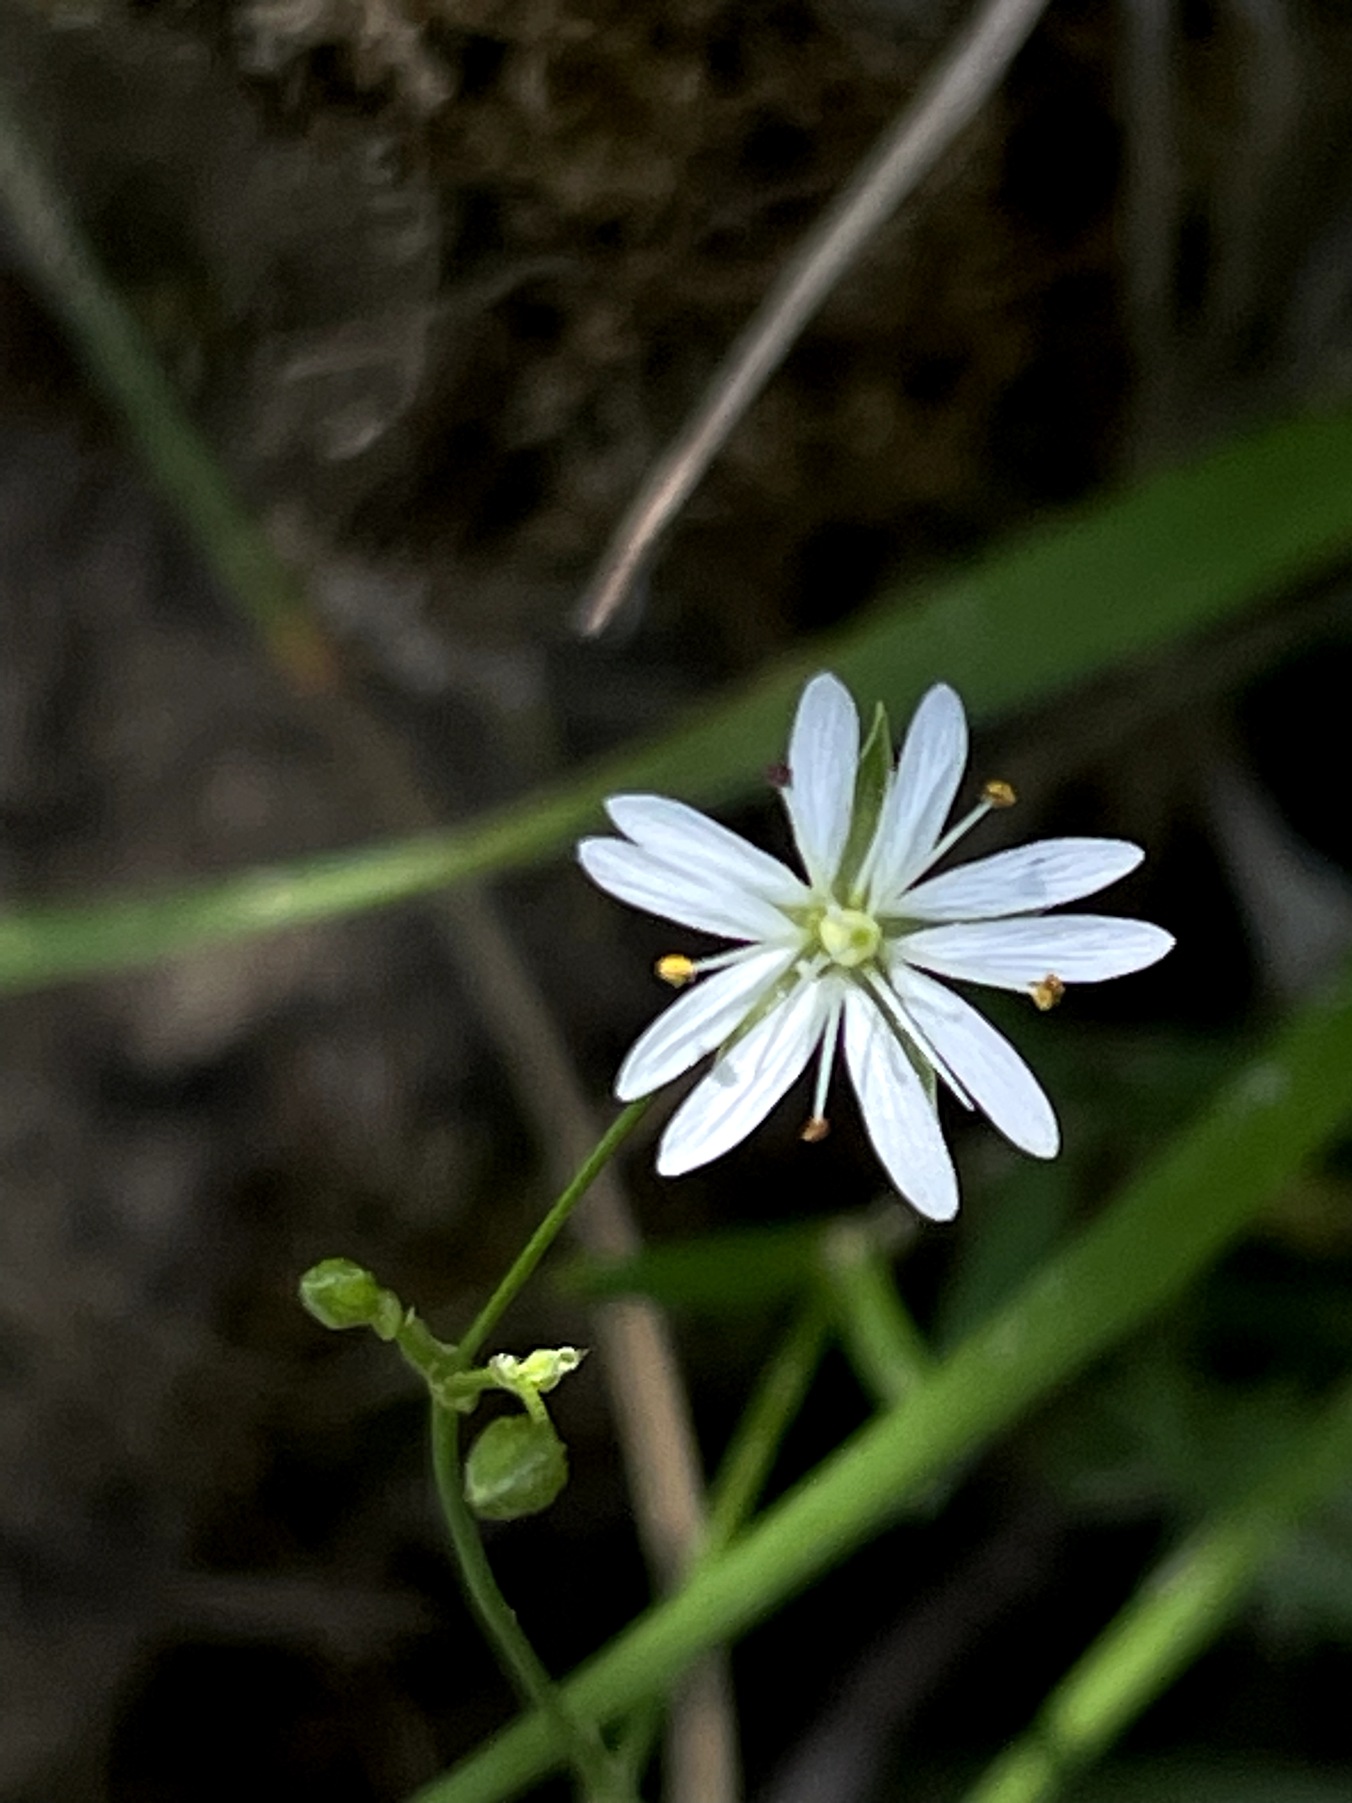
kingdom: Plantae
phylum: Tracheophyta
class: Magnoliopsida
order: Caryophyllales
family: Caryophyllaceae
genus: Stellaria
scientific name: Stellaria graminea
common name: Græsbladet fladstjerne
